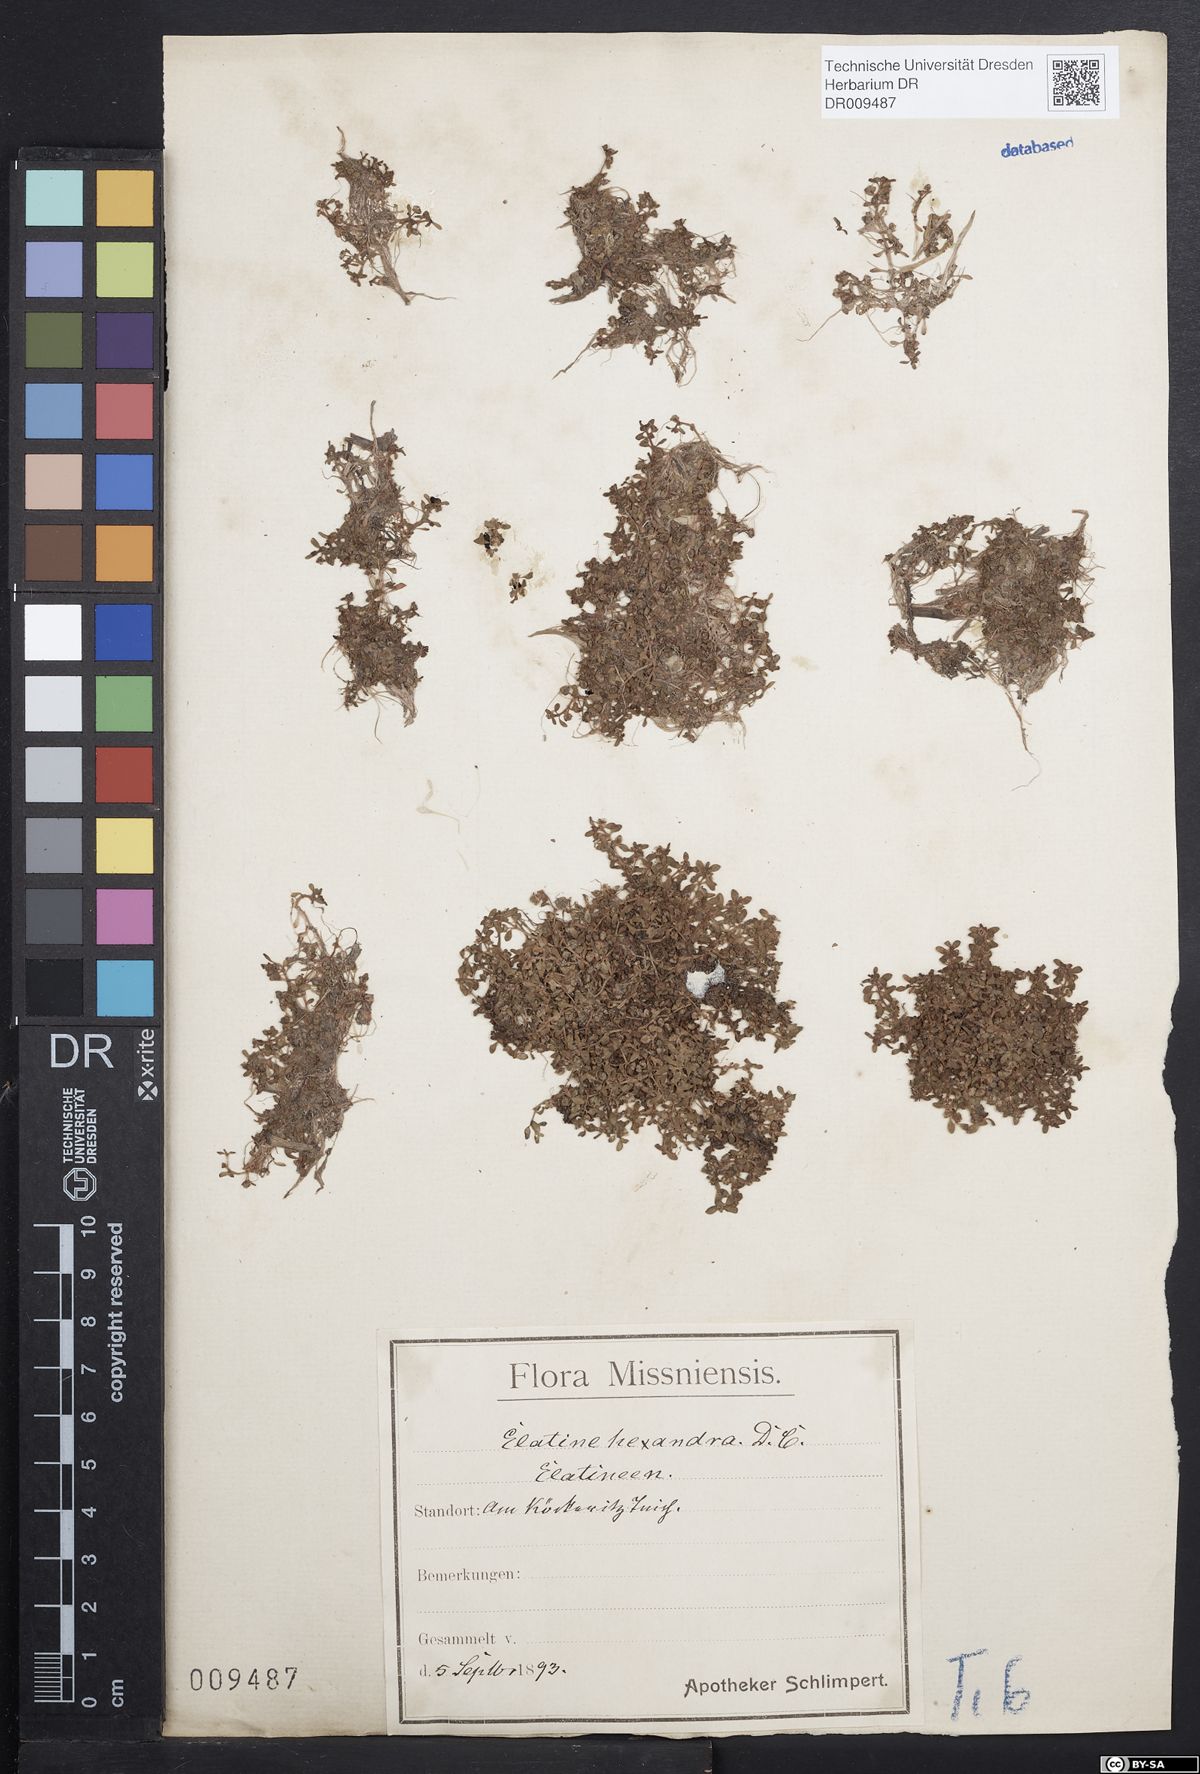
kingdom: Plantae
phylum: Tracheophyta
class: Magnoliopsida
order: Malpighiales
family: Elatinaceae
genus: Elatine
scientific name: Elatine hexandra
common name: Six-stamened waterwort
